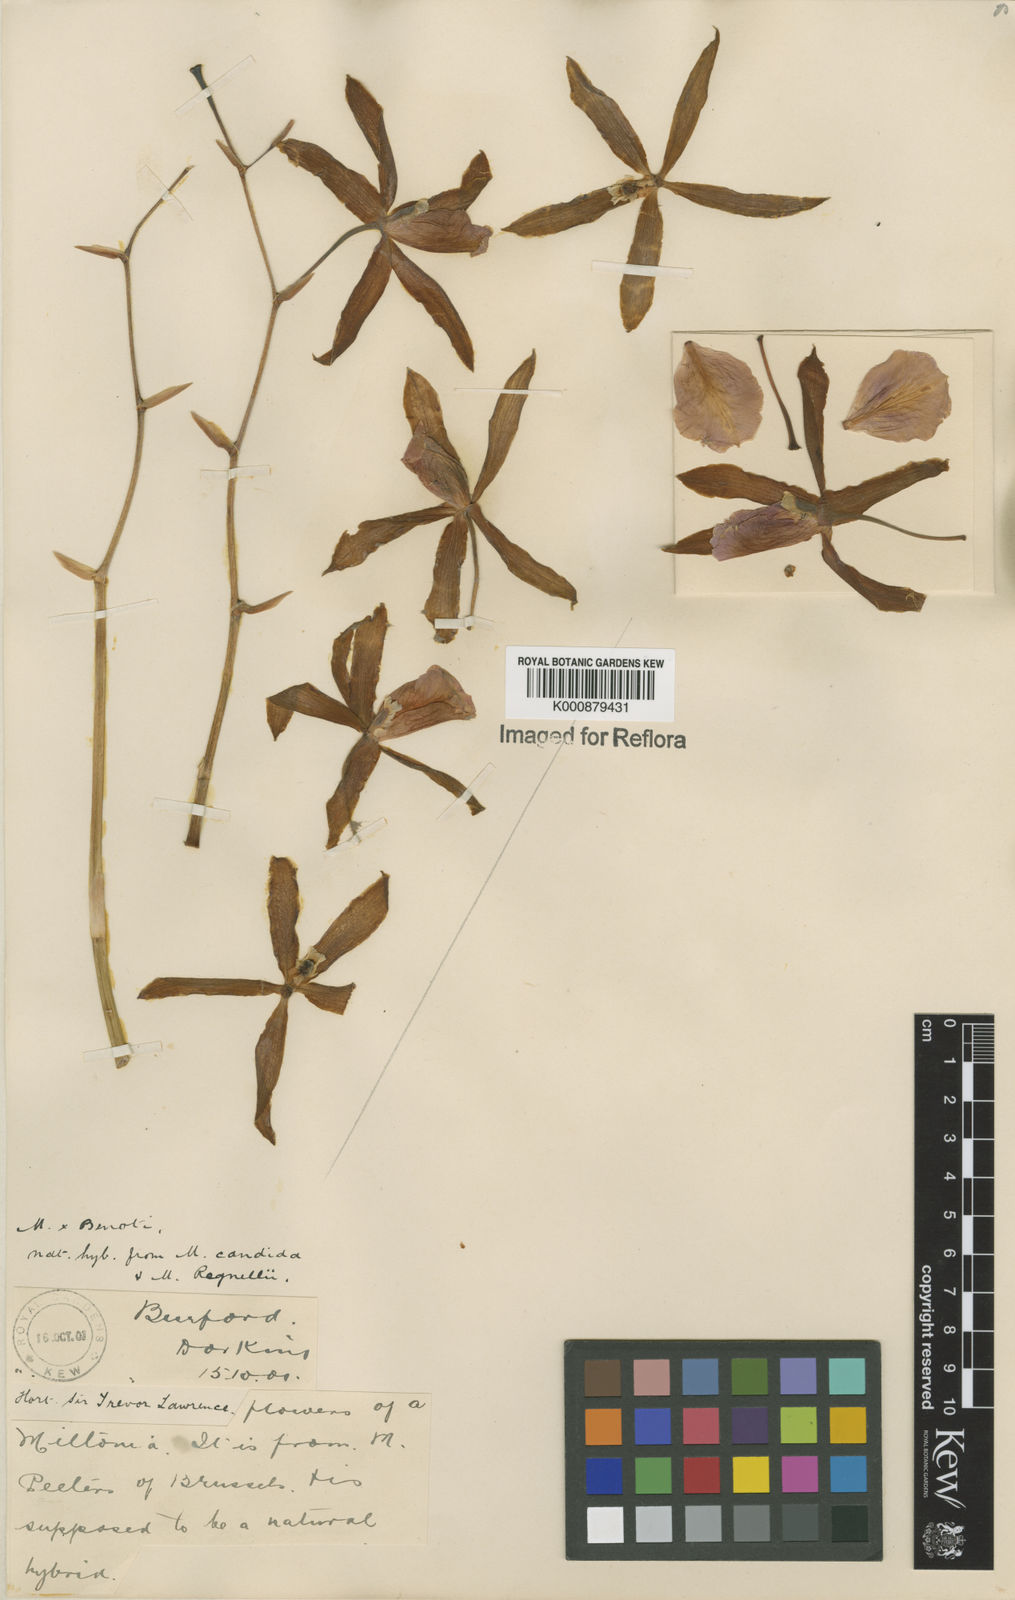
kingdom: Plantae
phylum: Tracheophyta
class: Liliopsida
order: Asparagales
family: Orchidaceae
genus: Miltonia
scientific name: Miltonia binotii
